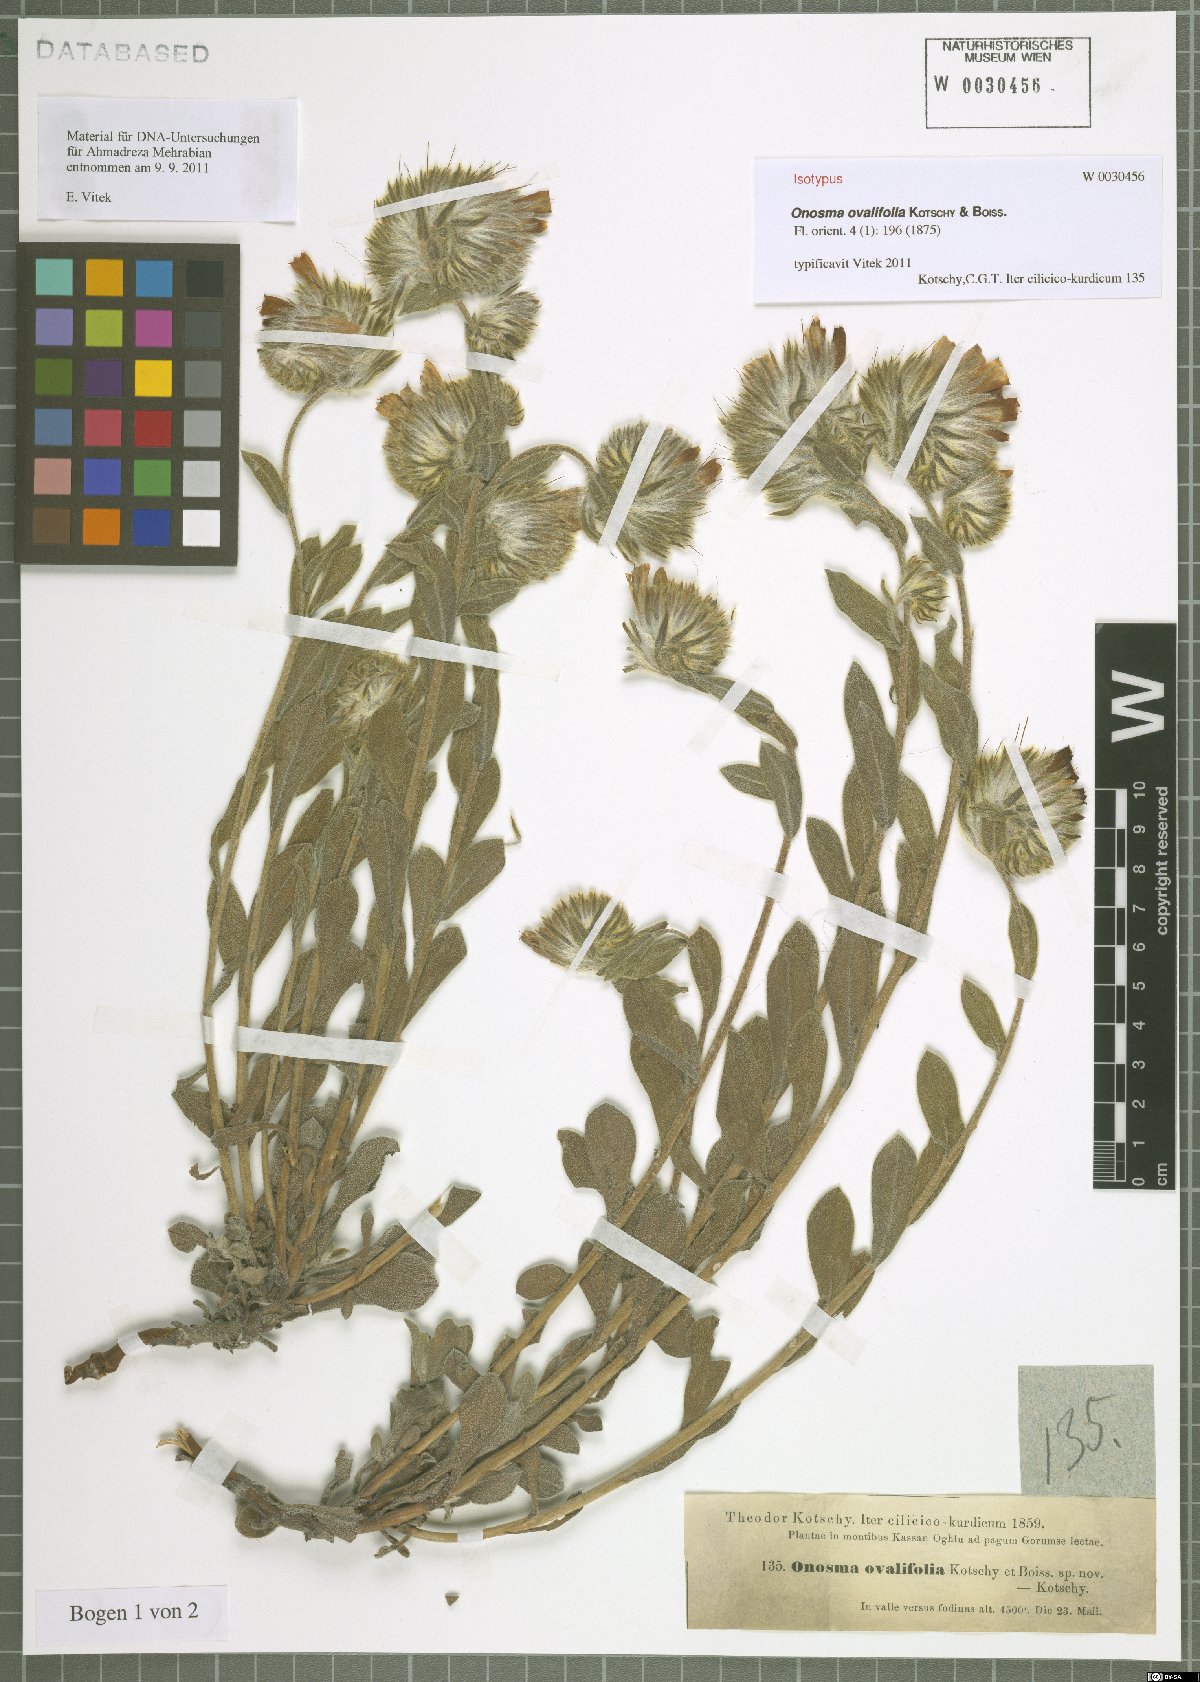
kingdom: Plantae
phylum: Tracheophyta
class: Magnoliopsida
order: Boraginales
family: Boraginaceae
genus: Onosma
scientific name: Onosma ovalifolia
